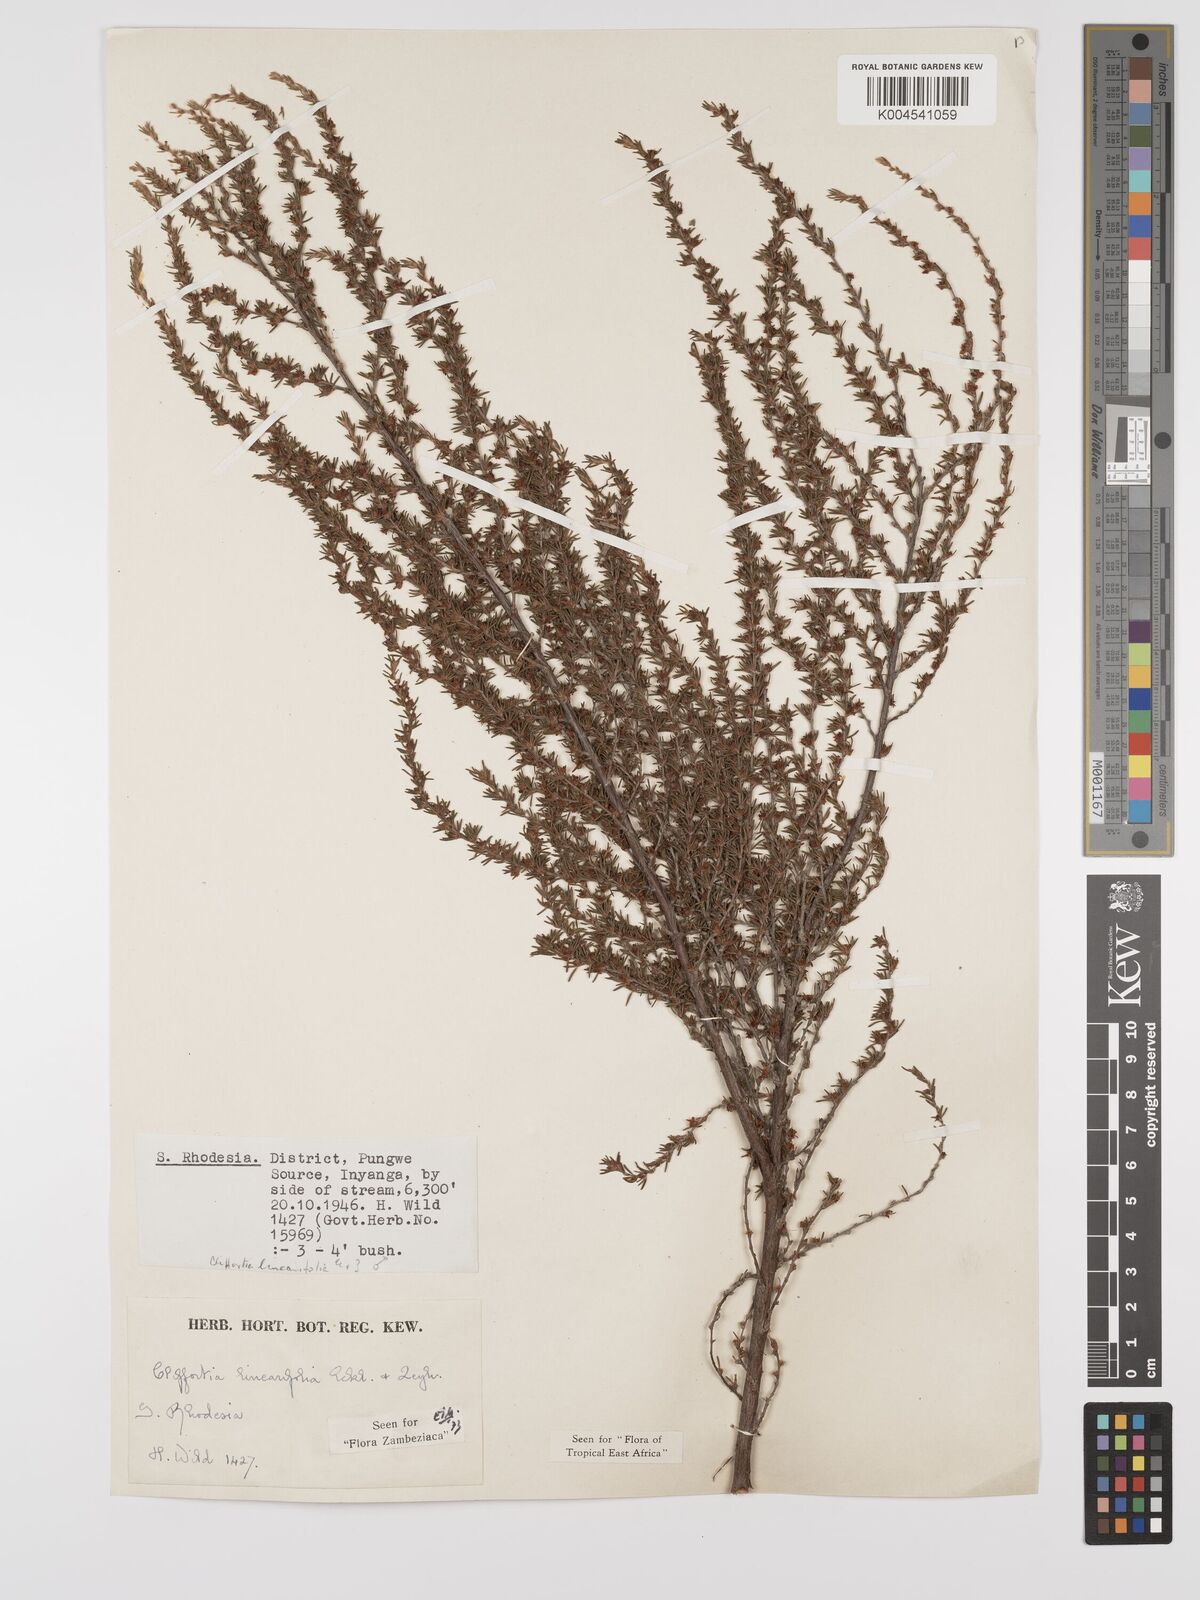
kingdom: Plantae
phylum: Tracheophyta
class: Magnoliopsida
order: Rosales
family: Rosaceae
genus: Cliffortia
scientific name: Cliffortia linearifolia
